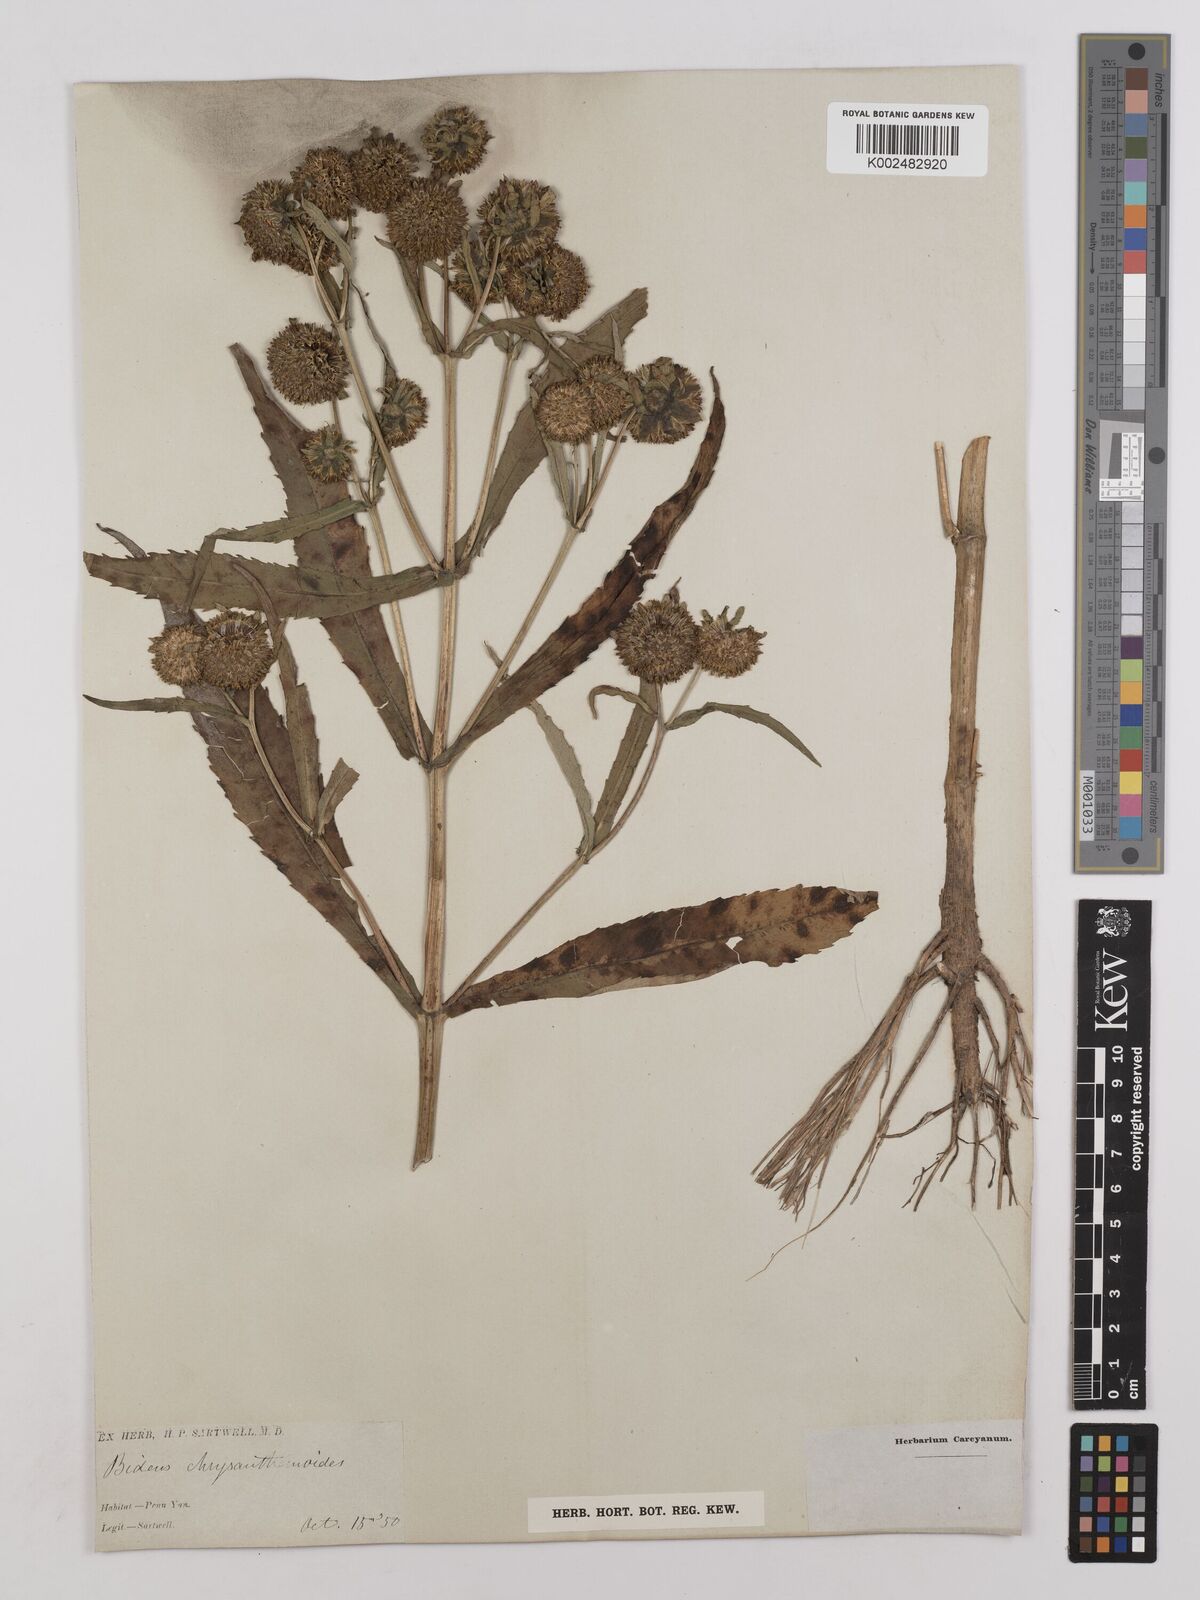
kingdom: Plantae
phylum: Tracheophyta
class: Magnoliopsida
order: Asterales
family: Asteraceae
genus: Bidens
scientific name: Bidens
